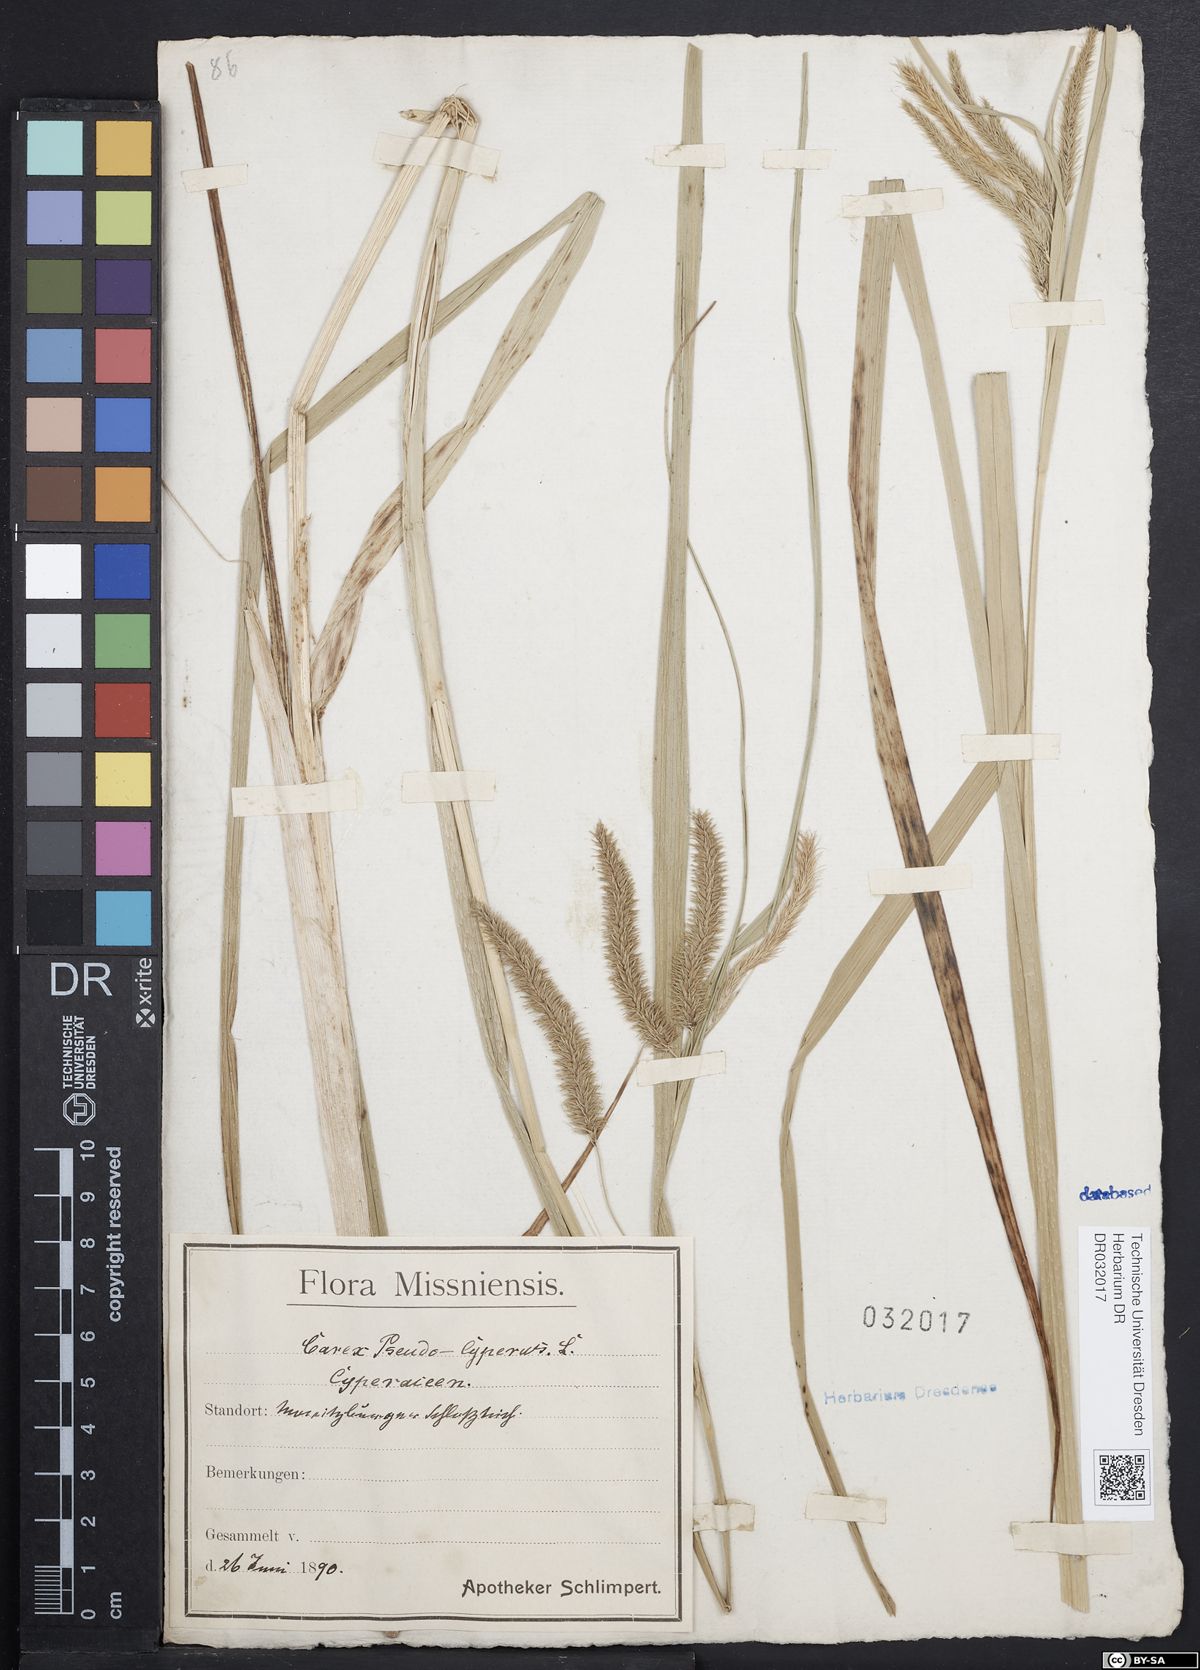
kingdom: Plantae
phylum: Tracheophyta
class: Liliopsida
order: Poales
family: Cyperaceae
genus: Carex
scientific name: Carex pseudocyperus
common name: Cyperus sedge
